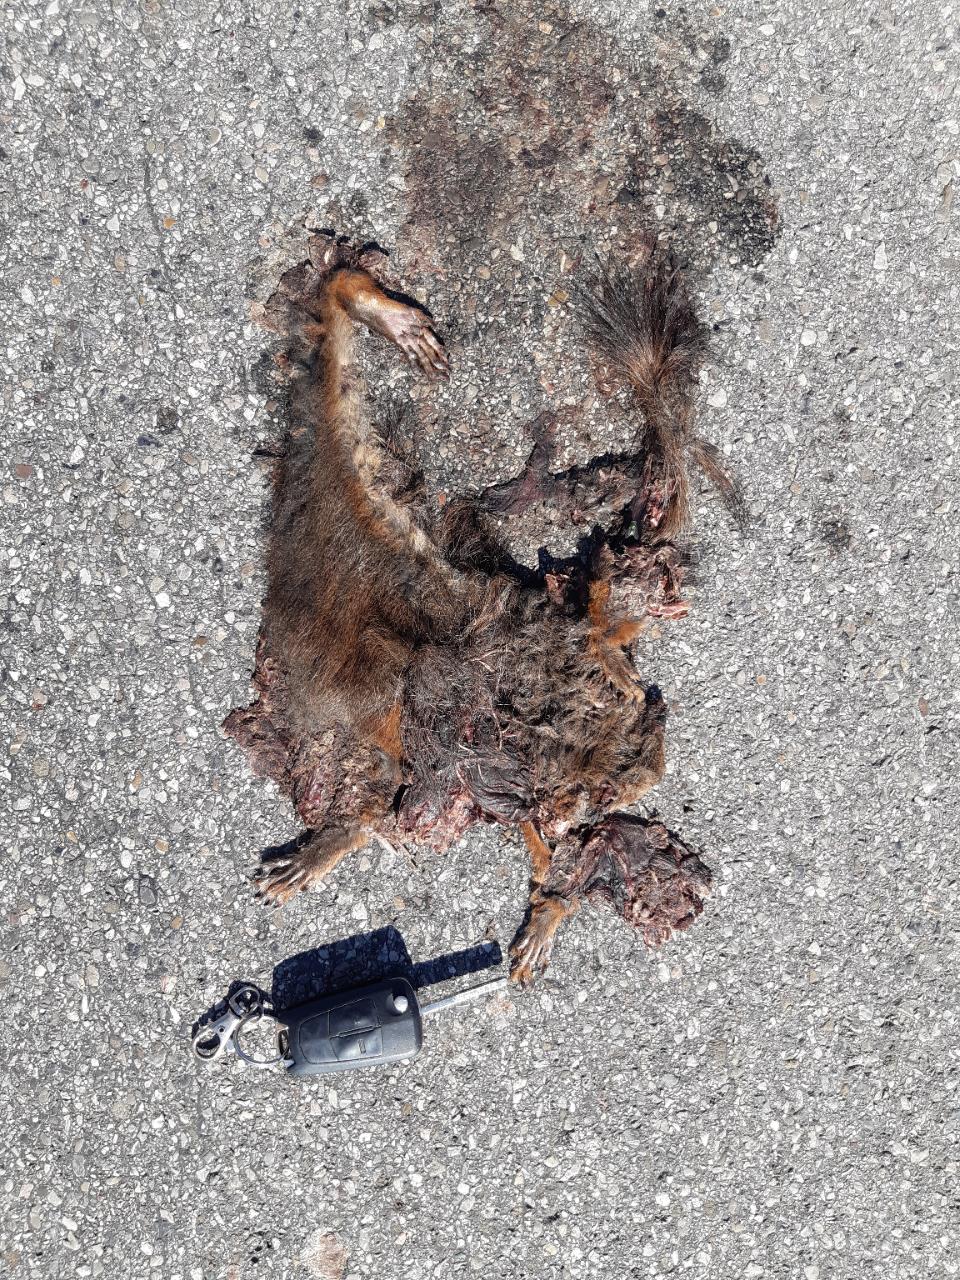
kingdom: Animalia
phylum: Chordata
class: Mammalia
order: Rodentia
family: Sciuridae
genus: Sciurus
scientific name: Sciurus vulgaris
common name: Eurasian red squirrel
